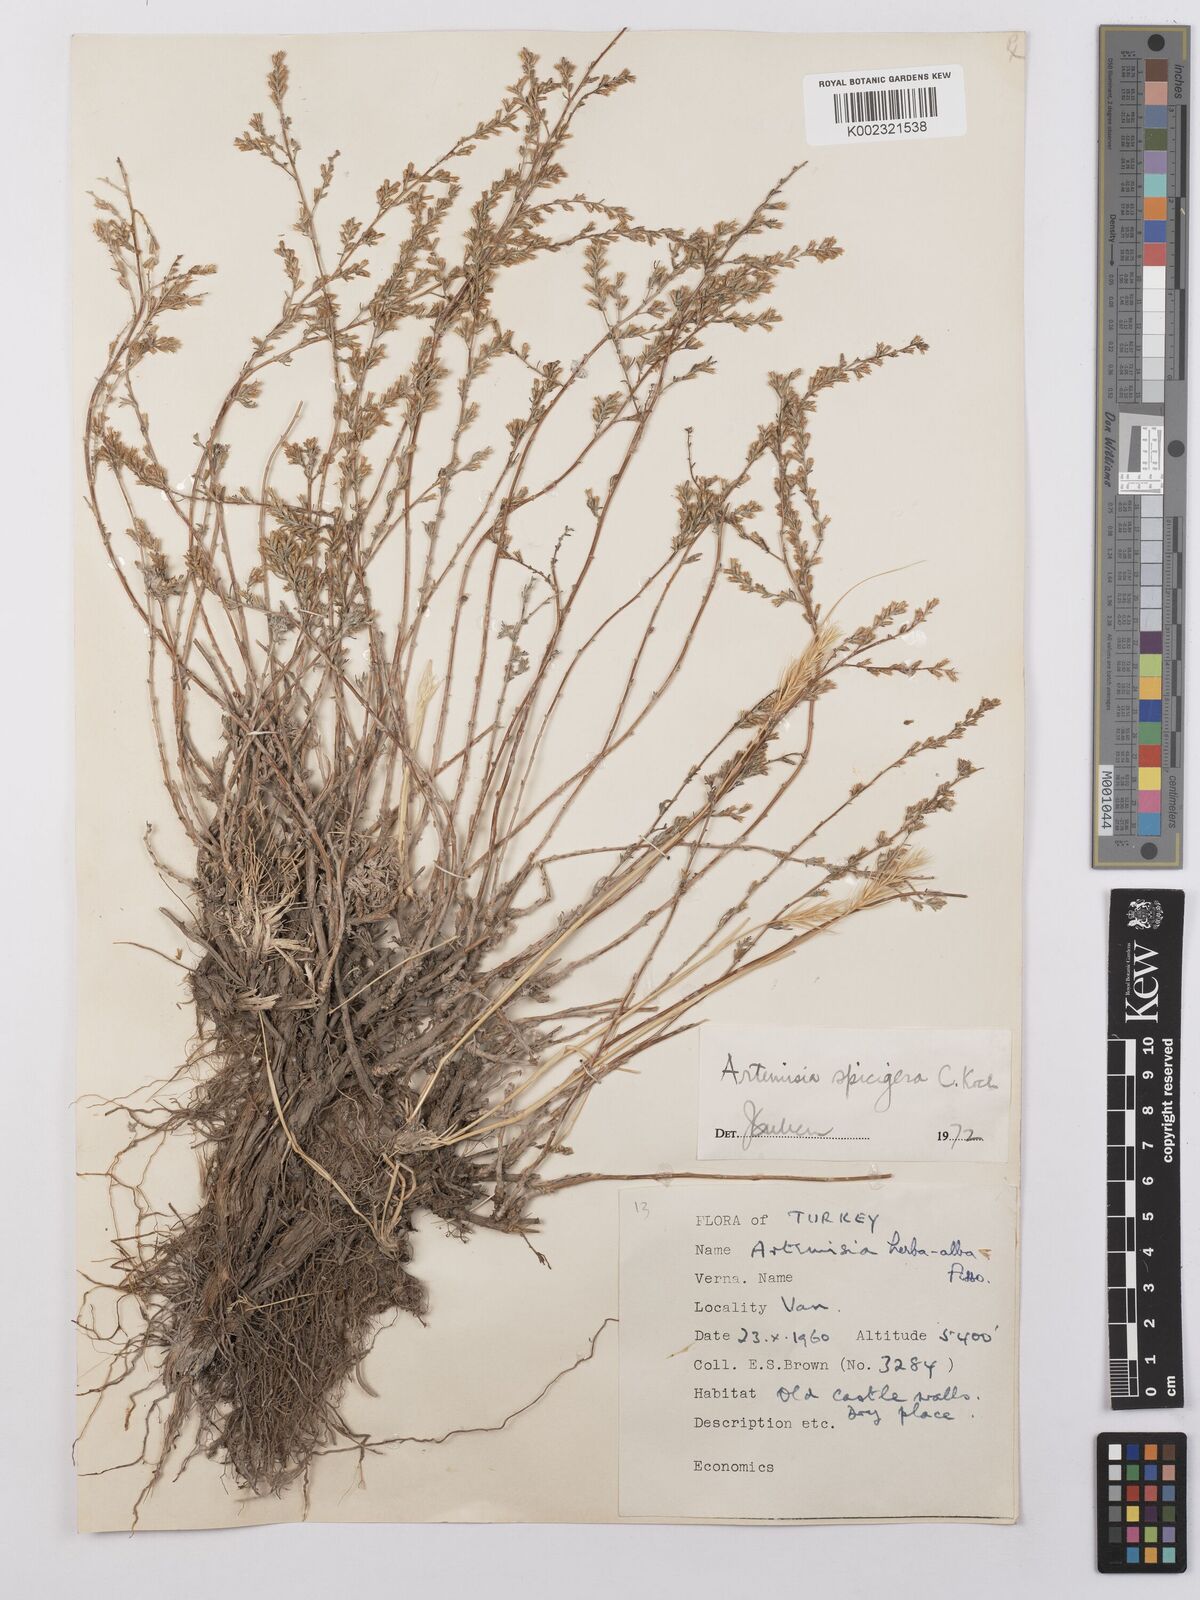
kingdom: Plantae
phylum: Tracheophyta
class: Magnoliopsida
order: Asterales
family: Asteraceae
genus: Artemisia
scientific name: Artemisia spicigera
